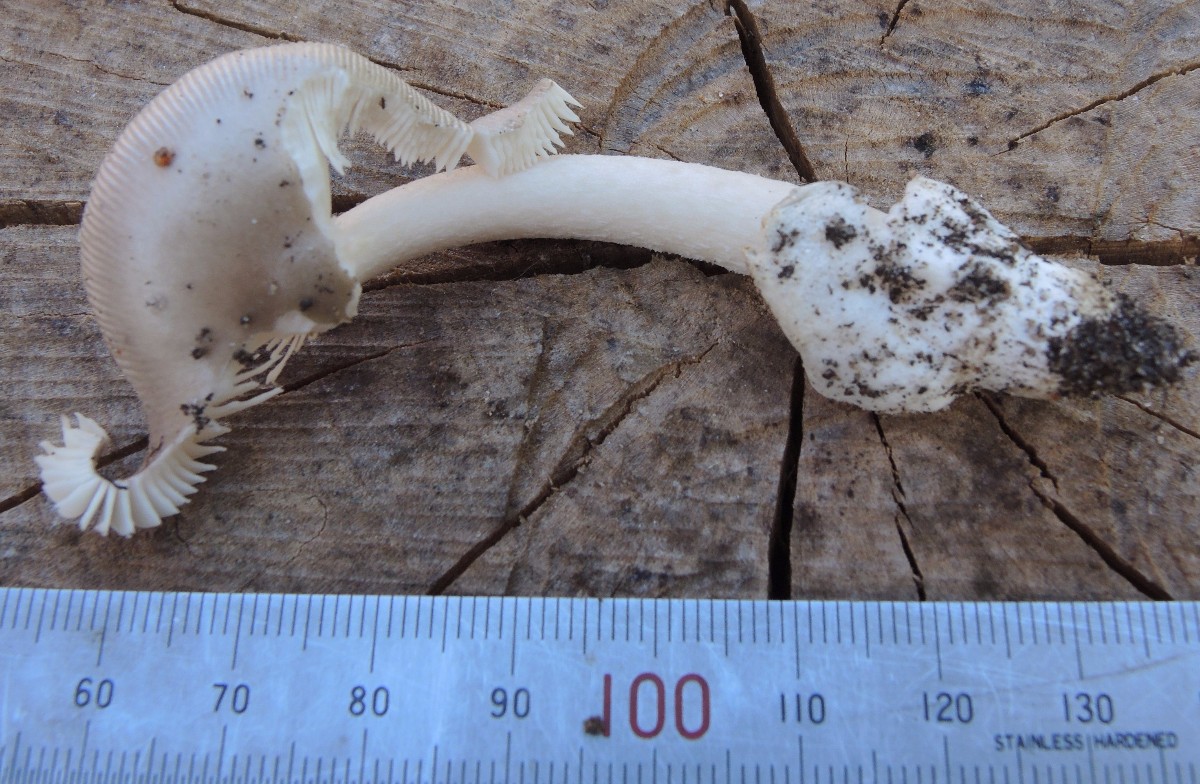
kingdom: Fungi
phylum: Basidiomycota
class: Agaricomycetes
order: Agaricales
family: Amanitaceae
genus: Amanita
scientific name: Amanita vaginata
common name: grå kam-fluesvamp
